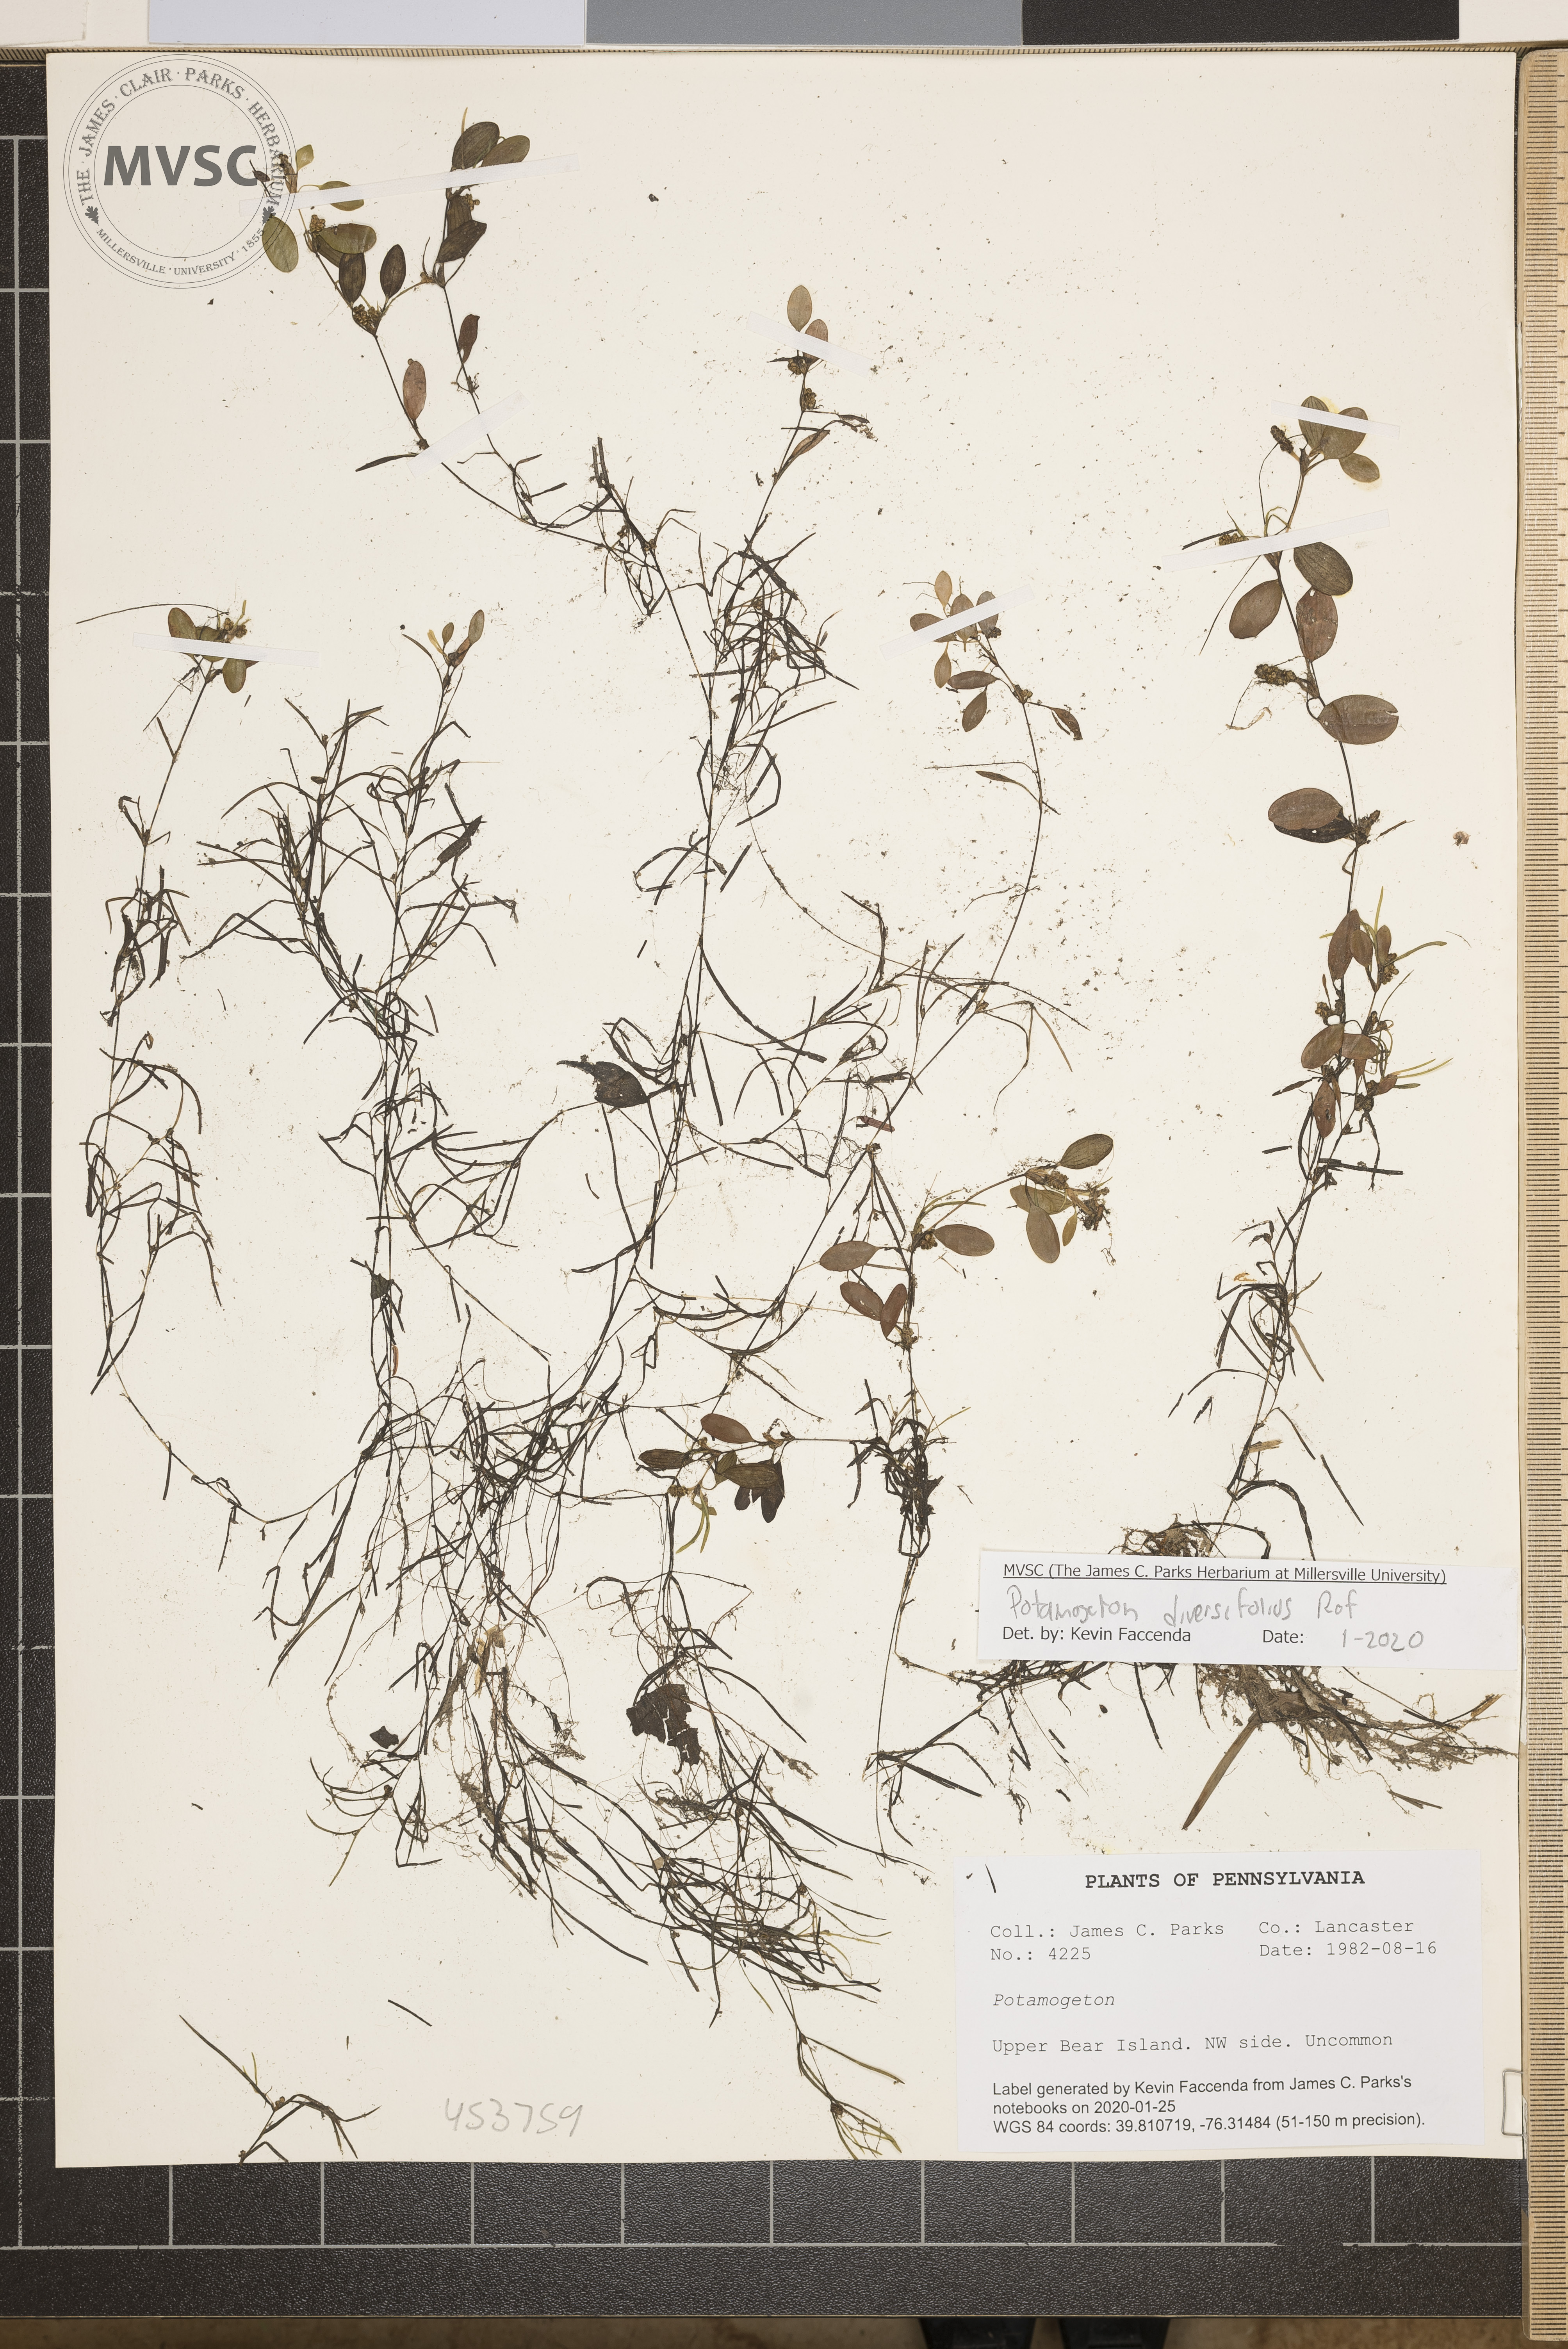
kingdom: Plantae
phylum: Tracheophyta
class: Liliopsida
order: Alismatales
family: Potamogetonaceae
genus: Potamogeton
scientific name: Potamogeton diversifolius
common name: Water-thread pondweed
